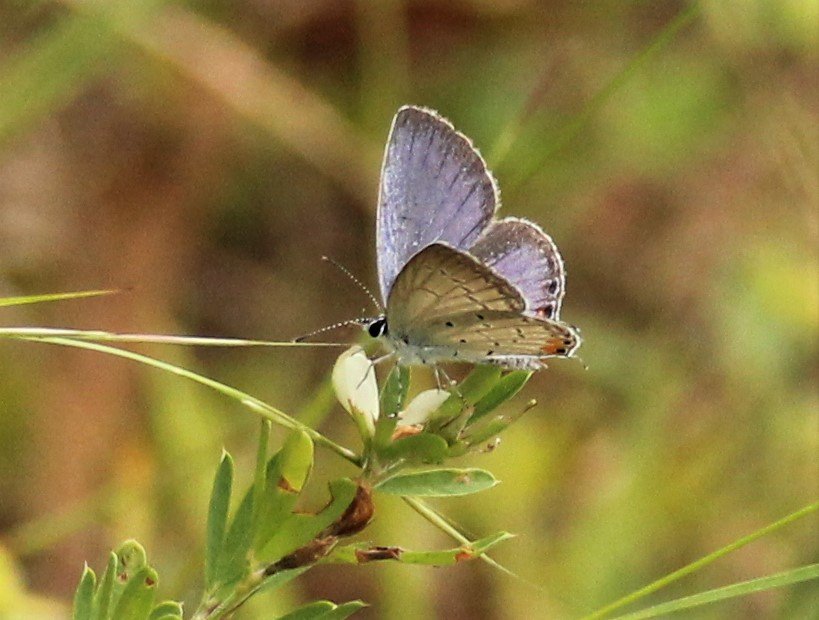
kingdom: Animalia
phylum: Arthropoda
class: Insecta
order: Lepidoptera
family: Lycaenidae
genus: Elkalyce
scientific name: Elkalyce comyntas
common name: Eastern Tailed-Blue
